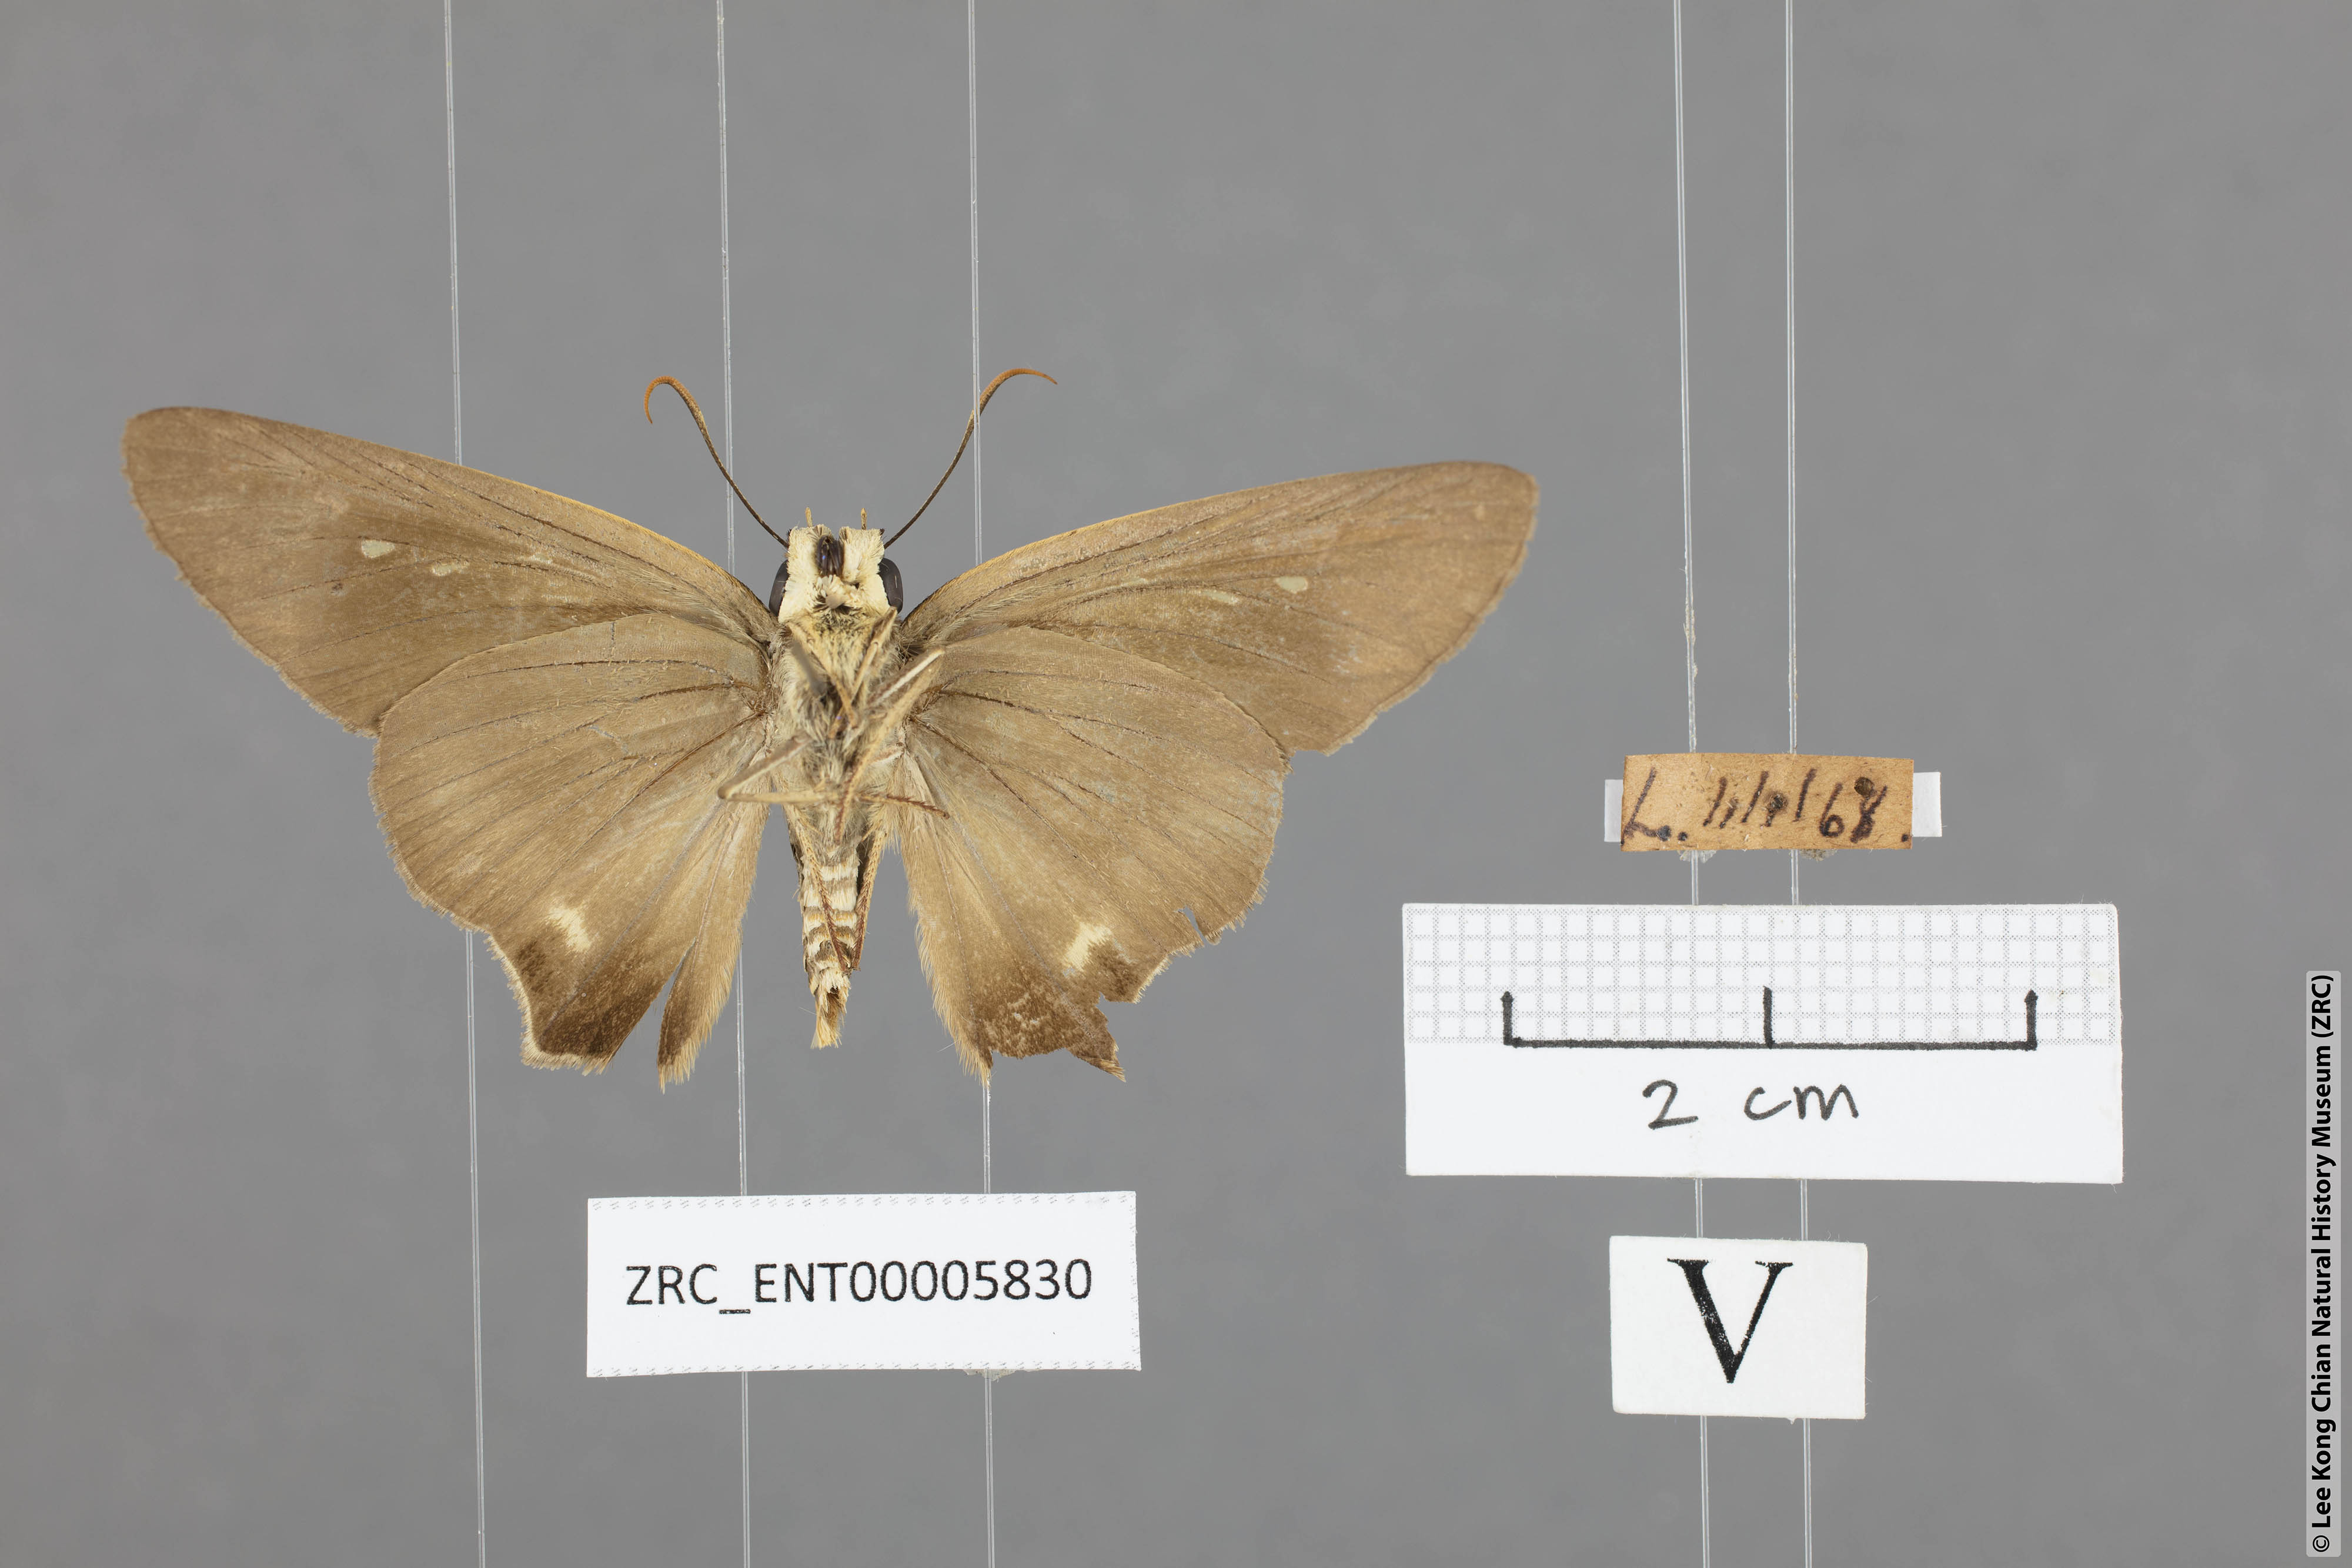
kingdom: Animalia
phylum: Arthropoda
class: Insecta
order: Lepidoptera
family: Hesperiidae
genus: Badamia
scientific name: Badamia exclamationis
